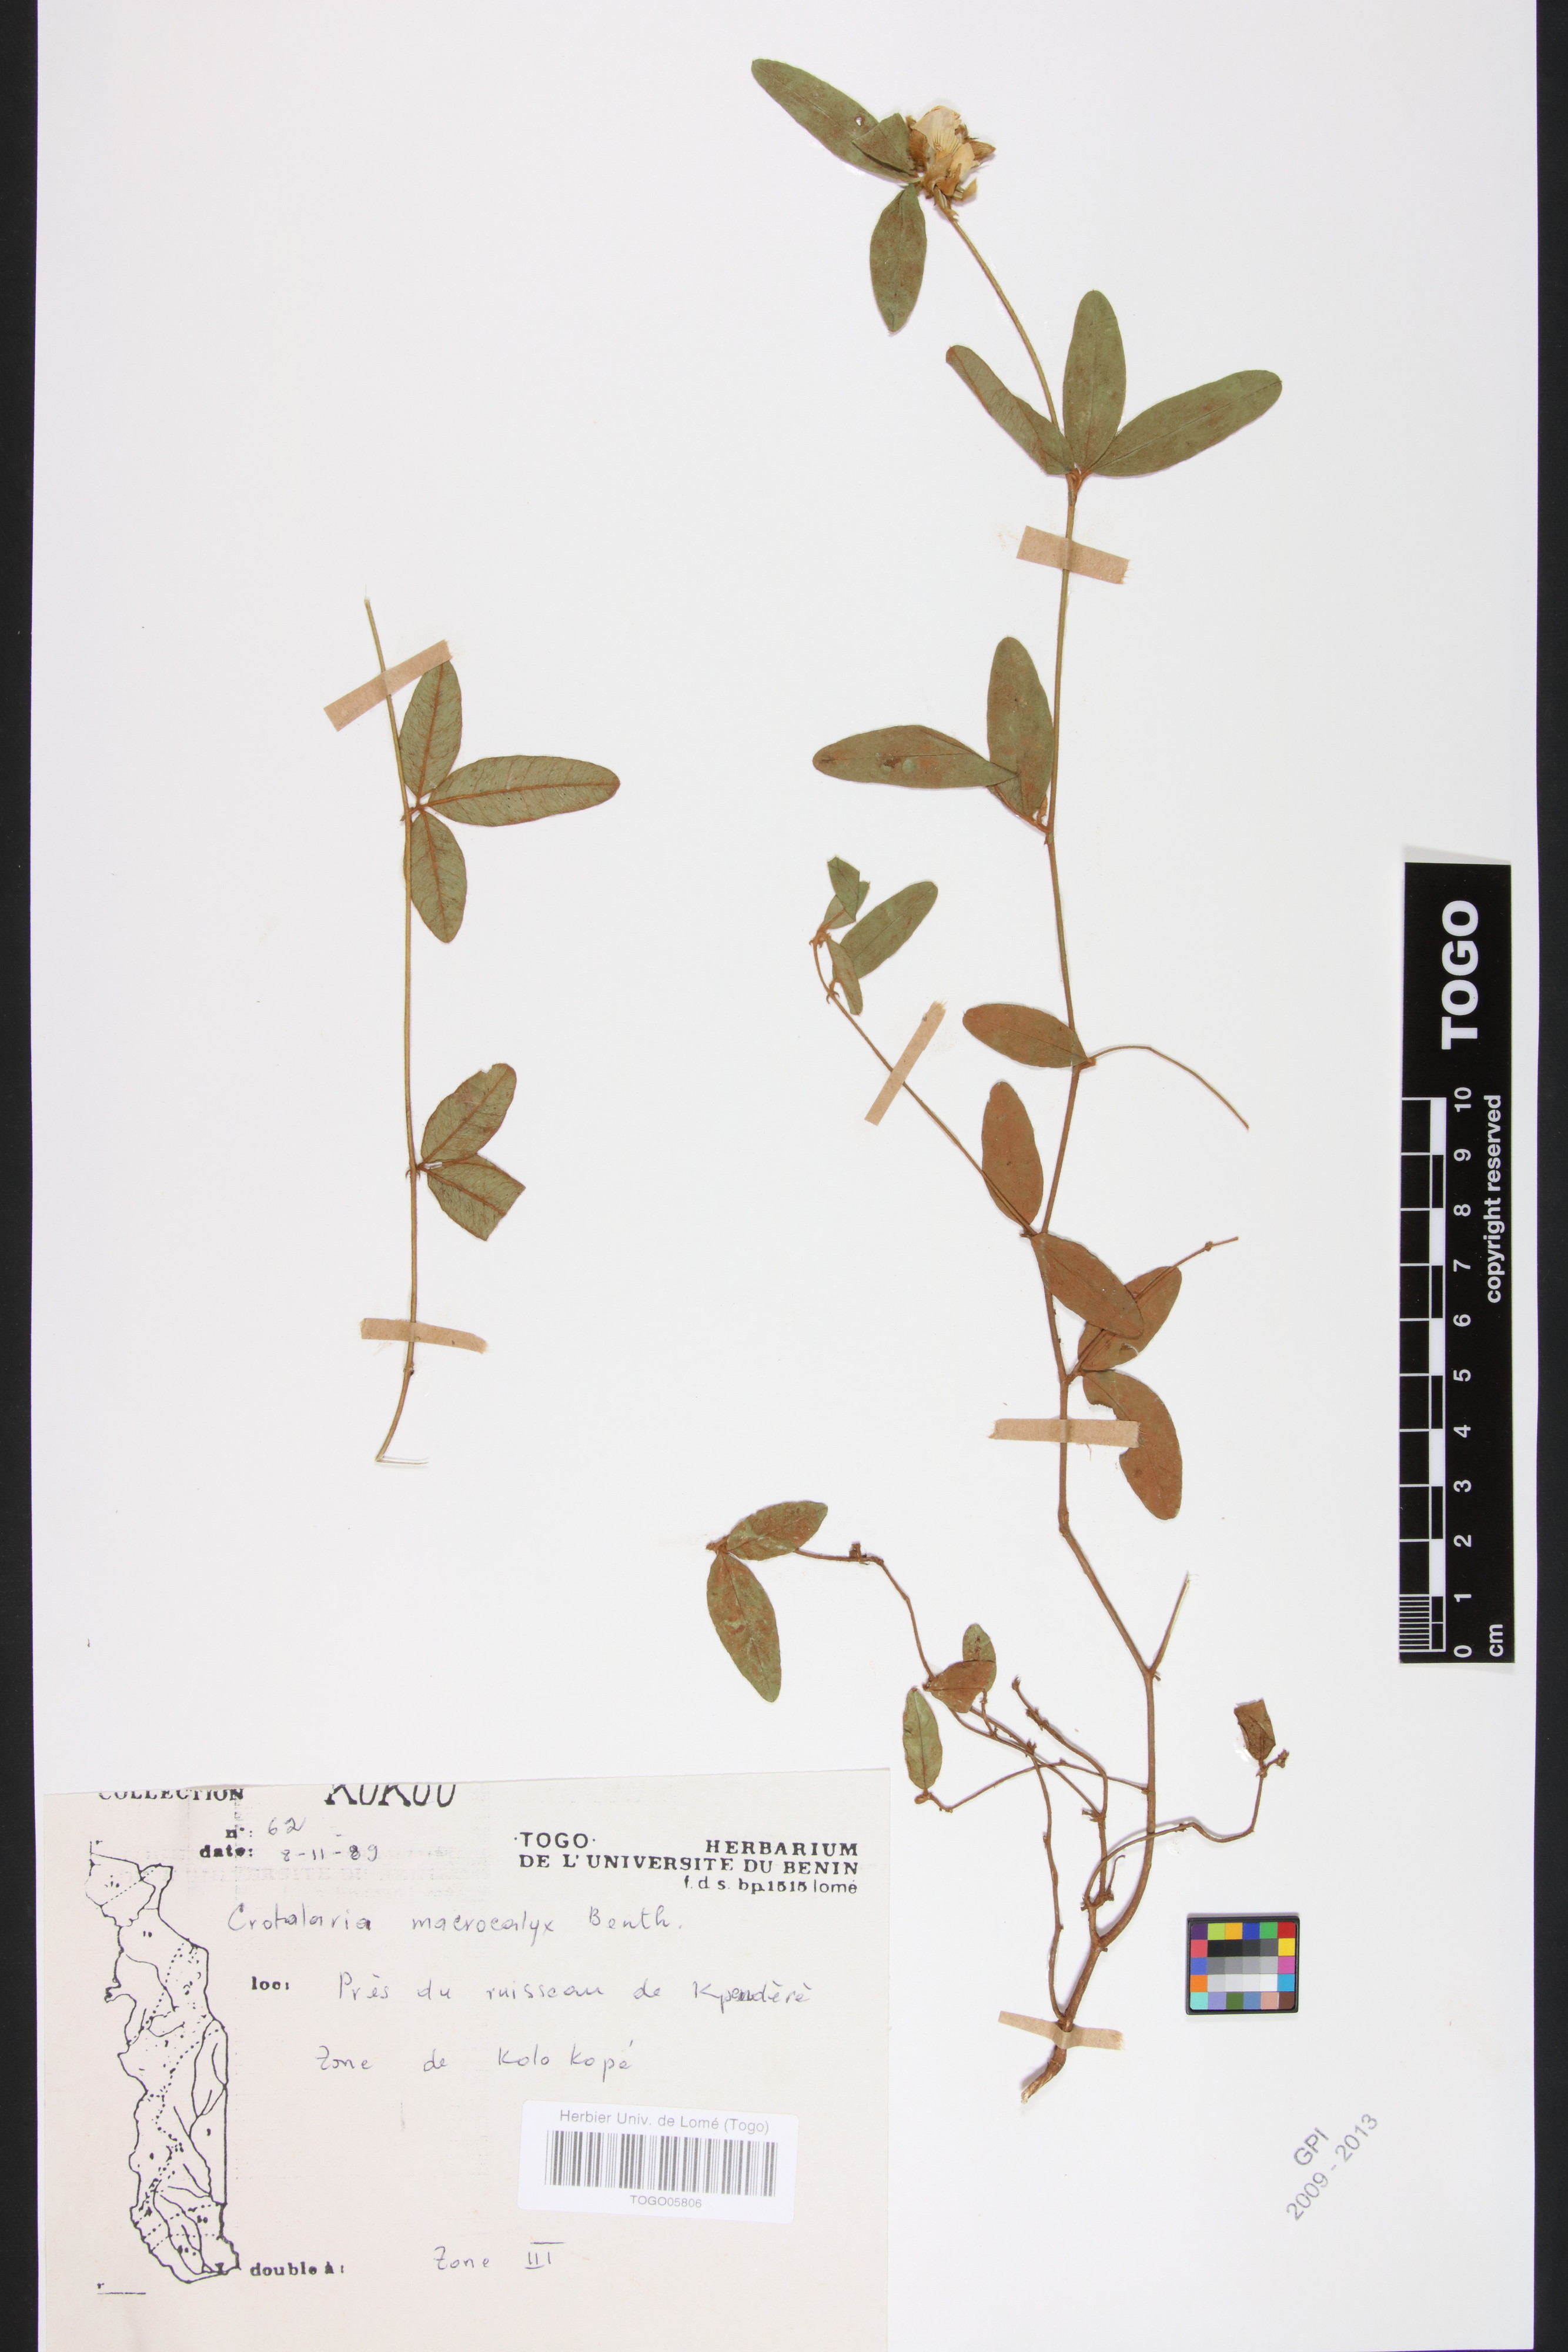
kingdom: Plantae
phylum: Tracheophyta
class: Magnoliopsida
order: Fabales
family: Fabaceae
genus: Crotalaria
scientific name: Crotalaria macrocalyx
